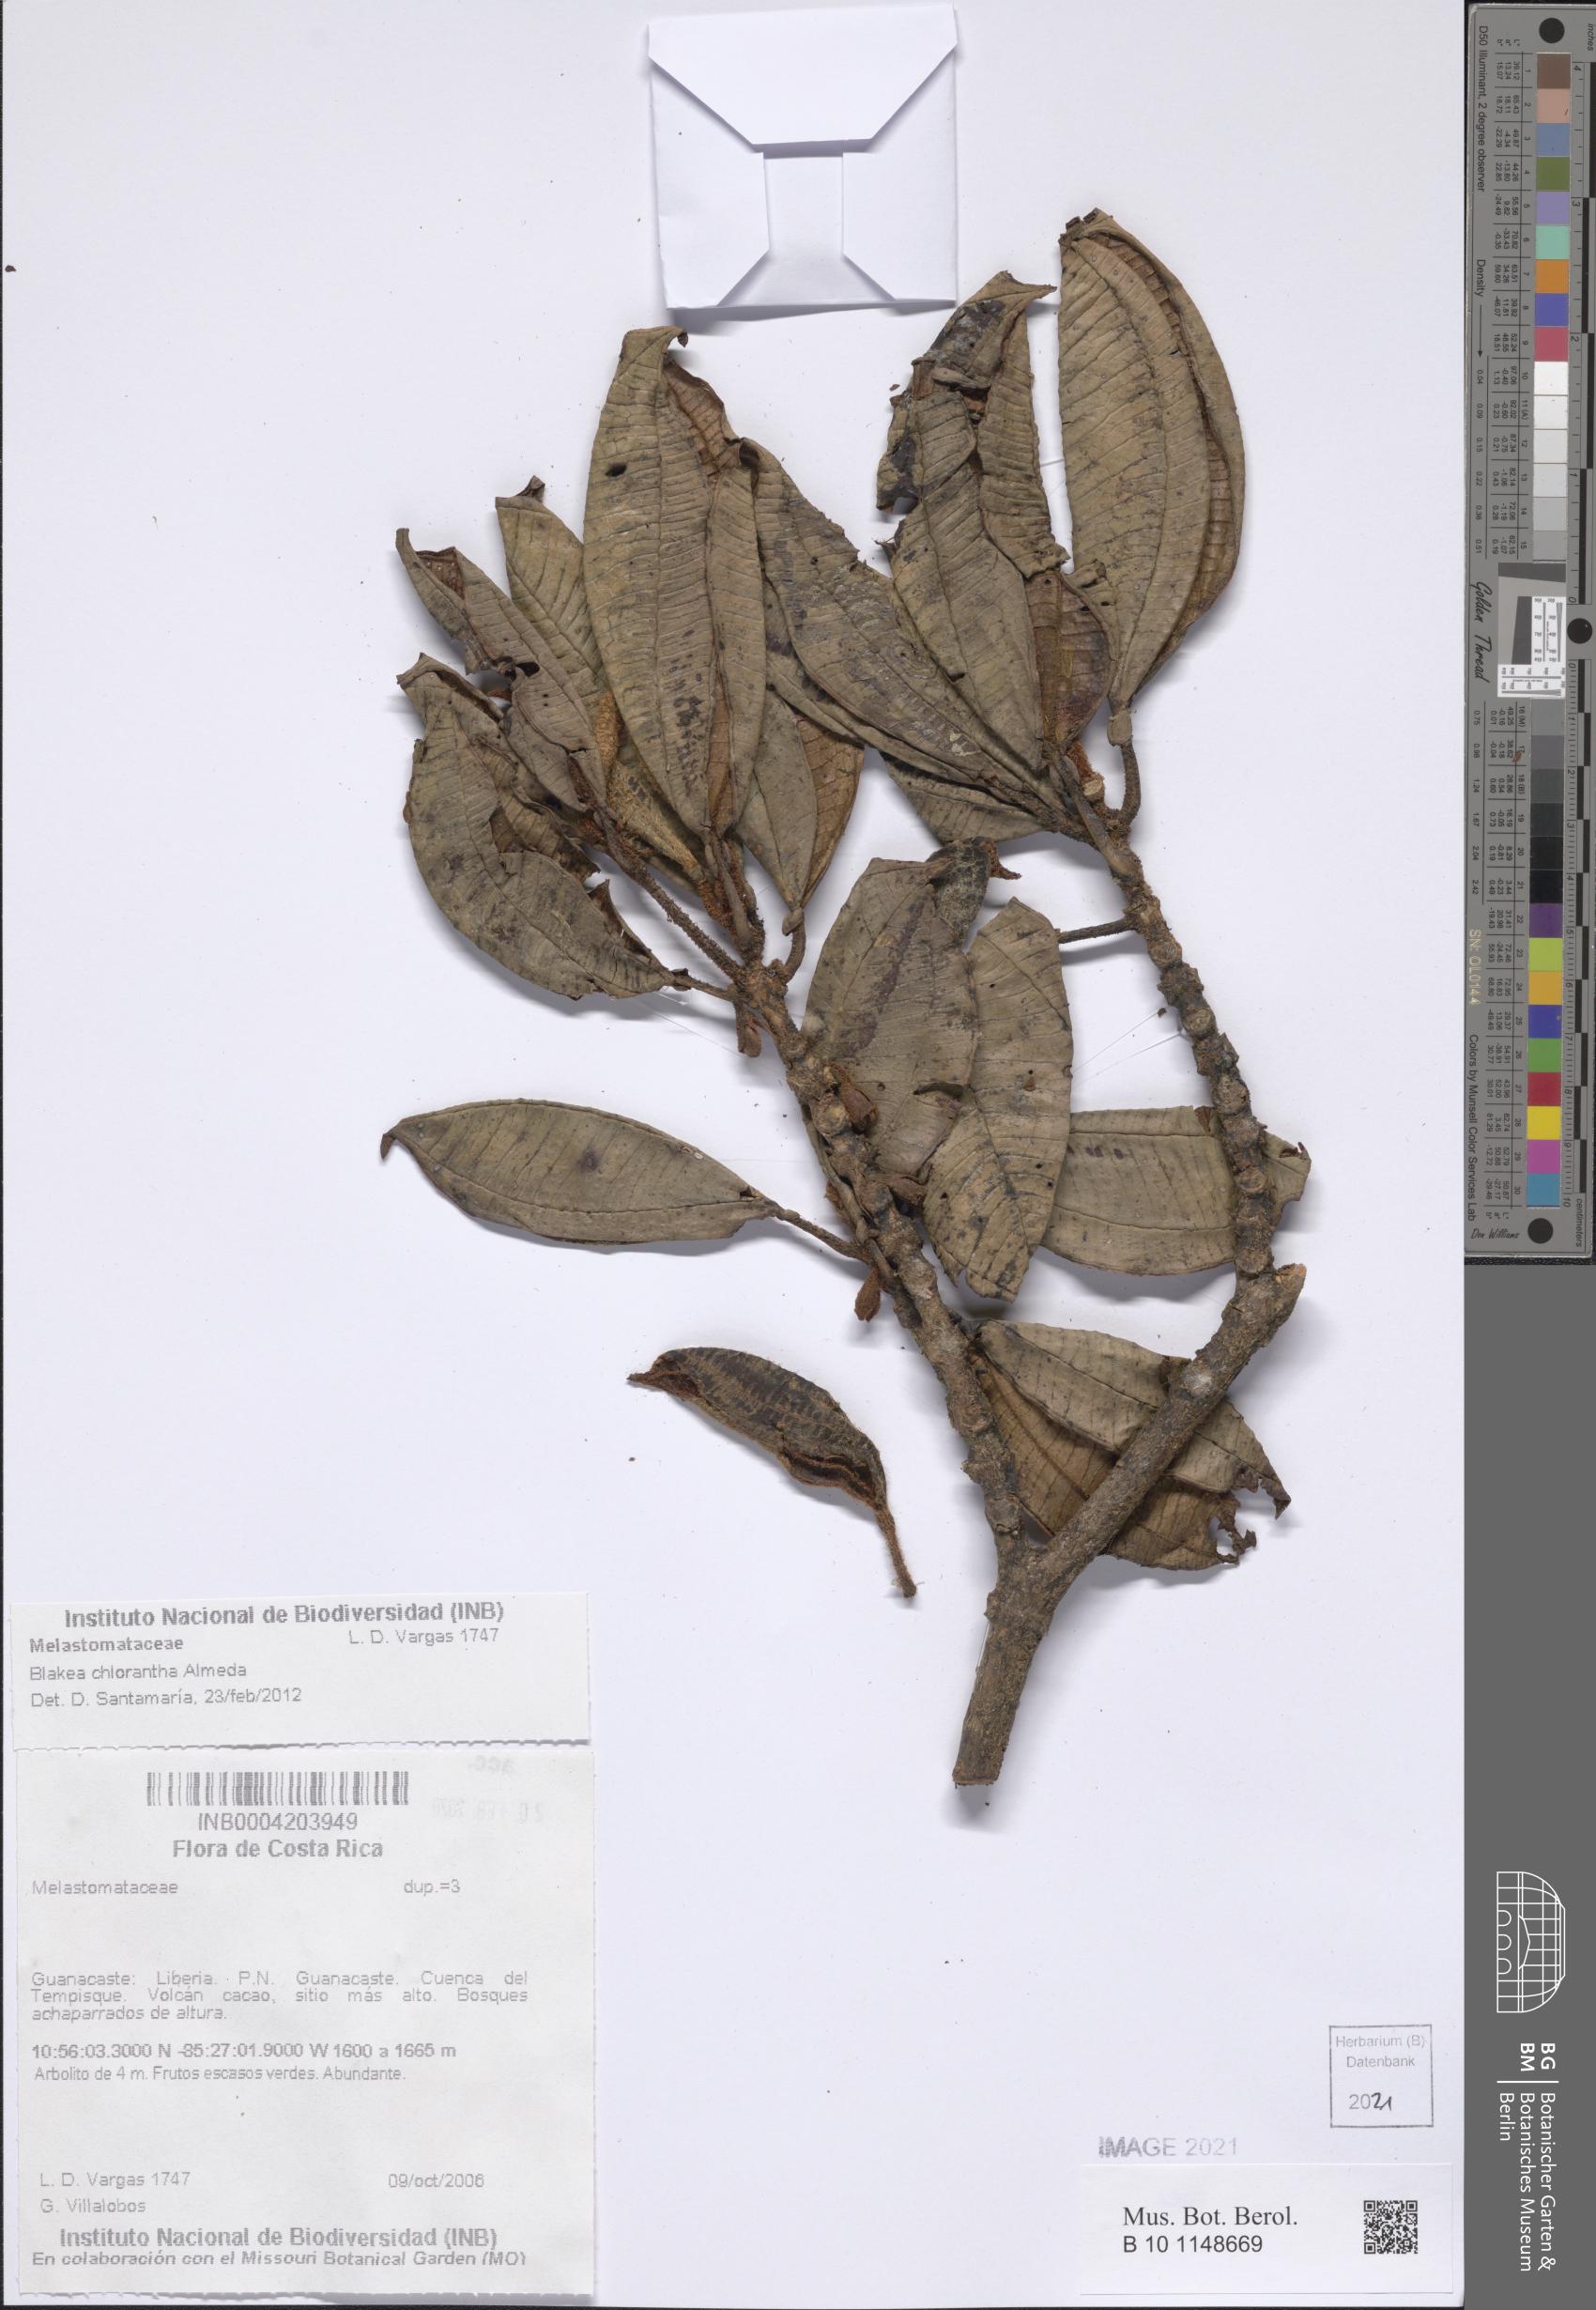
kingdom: Plantae
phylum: Tracheophyta
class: Magnoliopsida
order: Myrtales
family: Melastomataceae
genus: Blakea
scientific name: Blakea chlorantha
